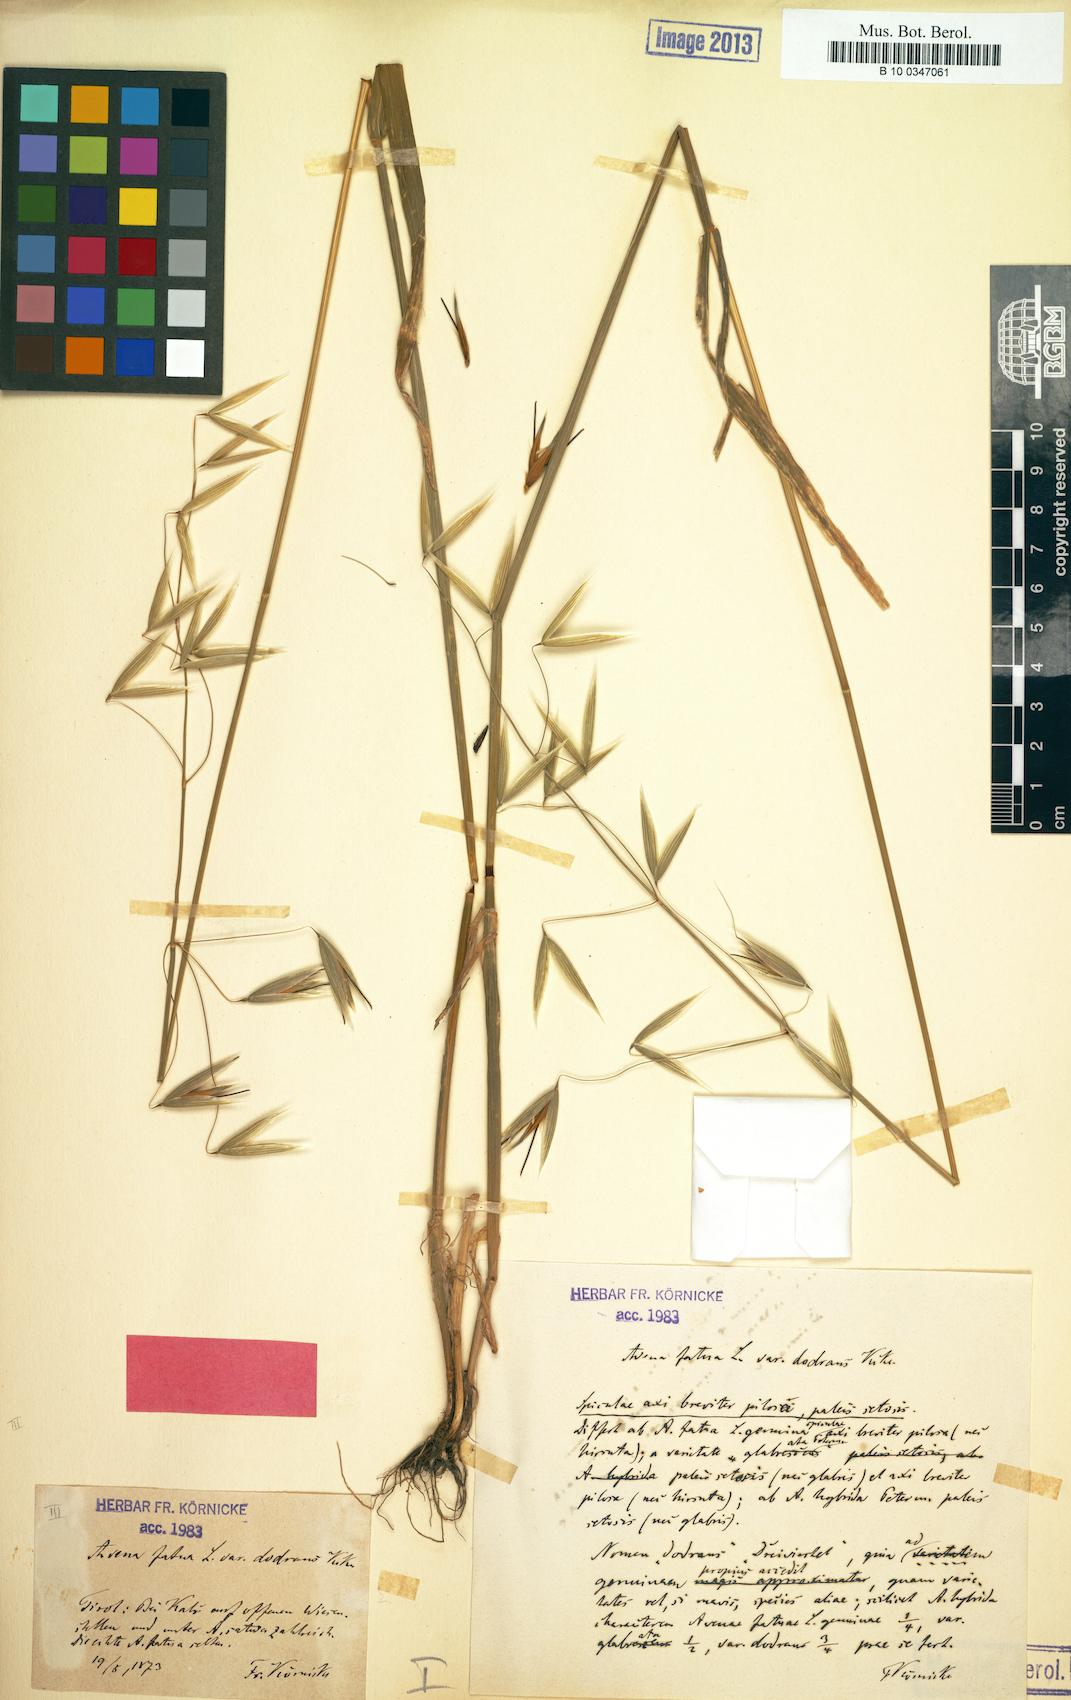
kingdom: Plantae
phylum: Tracheophyta
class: Liliopsida
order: Poales
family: Poaceae
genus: Avena
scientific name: Avena hybrida
